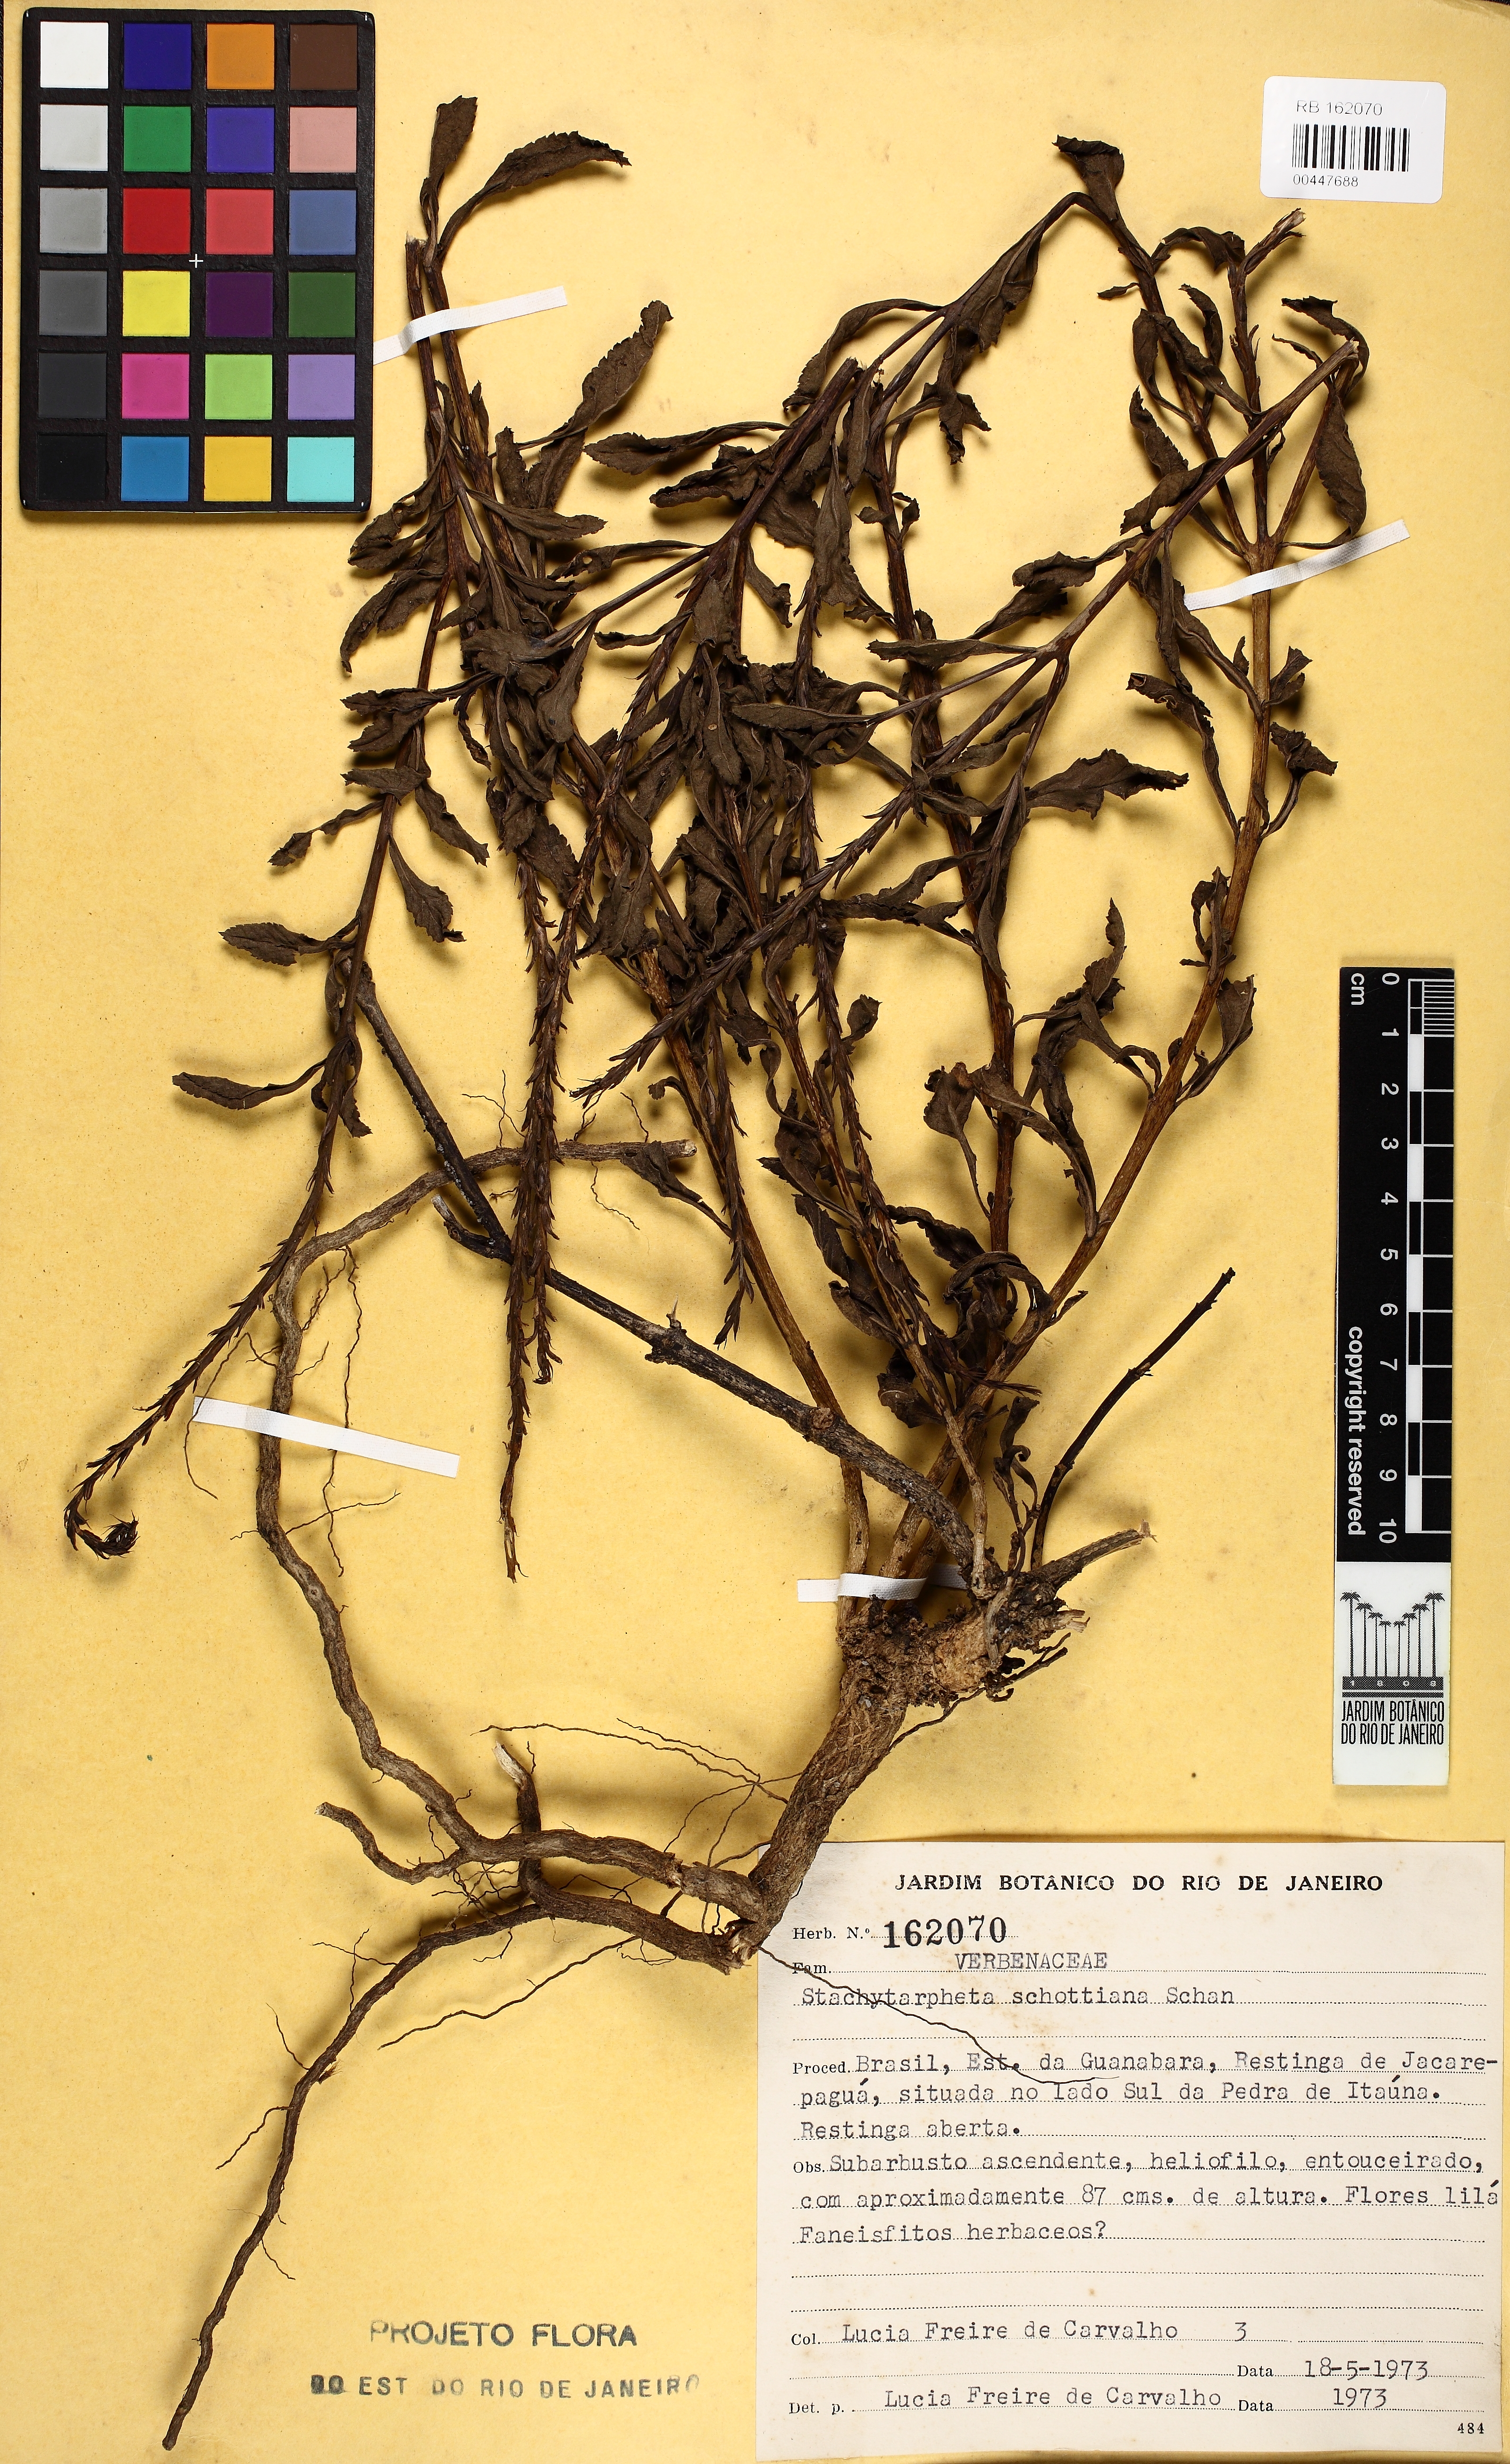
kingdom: Plantae
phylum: Tracheophyta
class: Magnoliopsida
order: Lamiales
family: Verbenaceae
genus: Stachytarpheta
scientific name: Stachytarpheta schottiana
